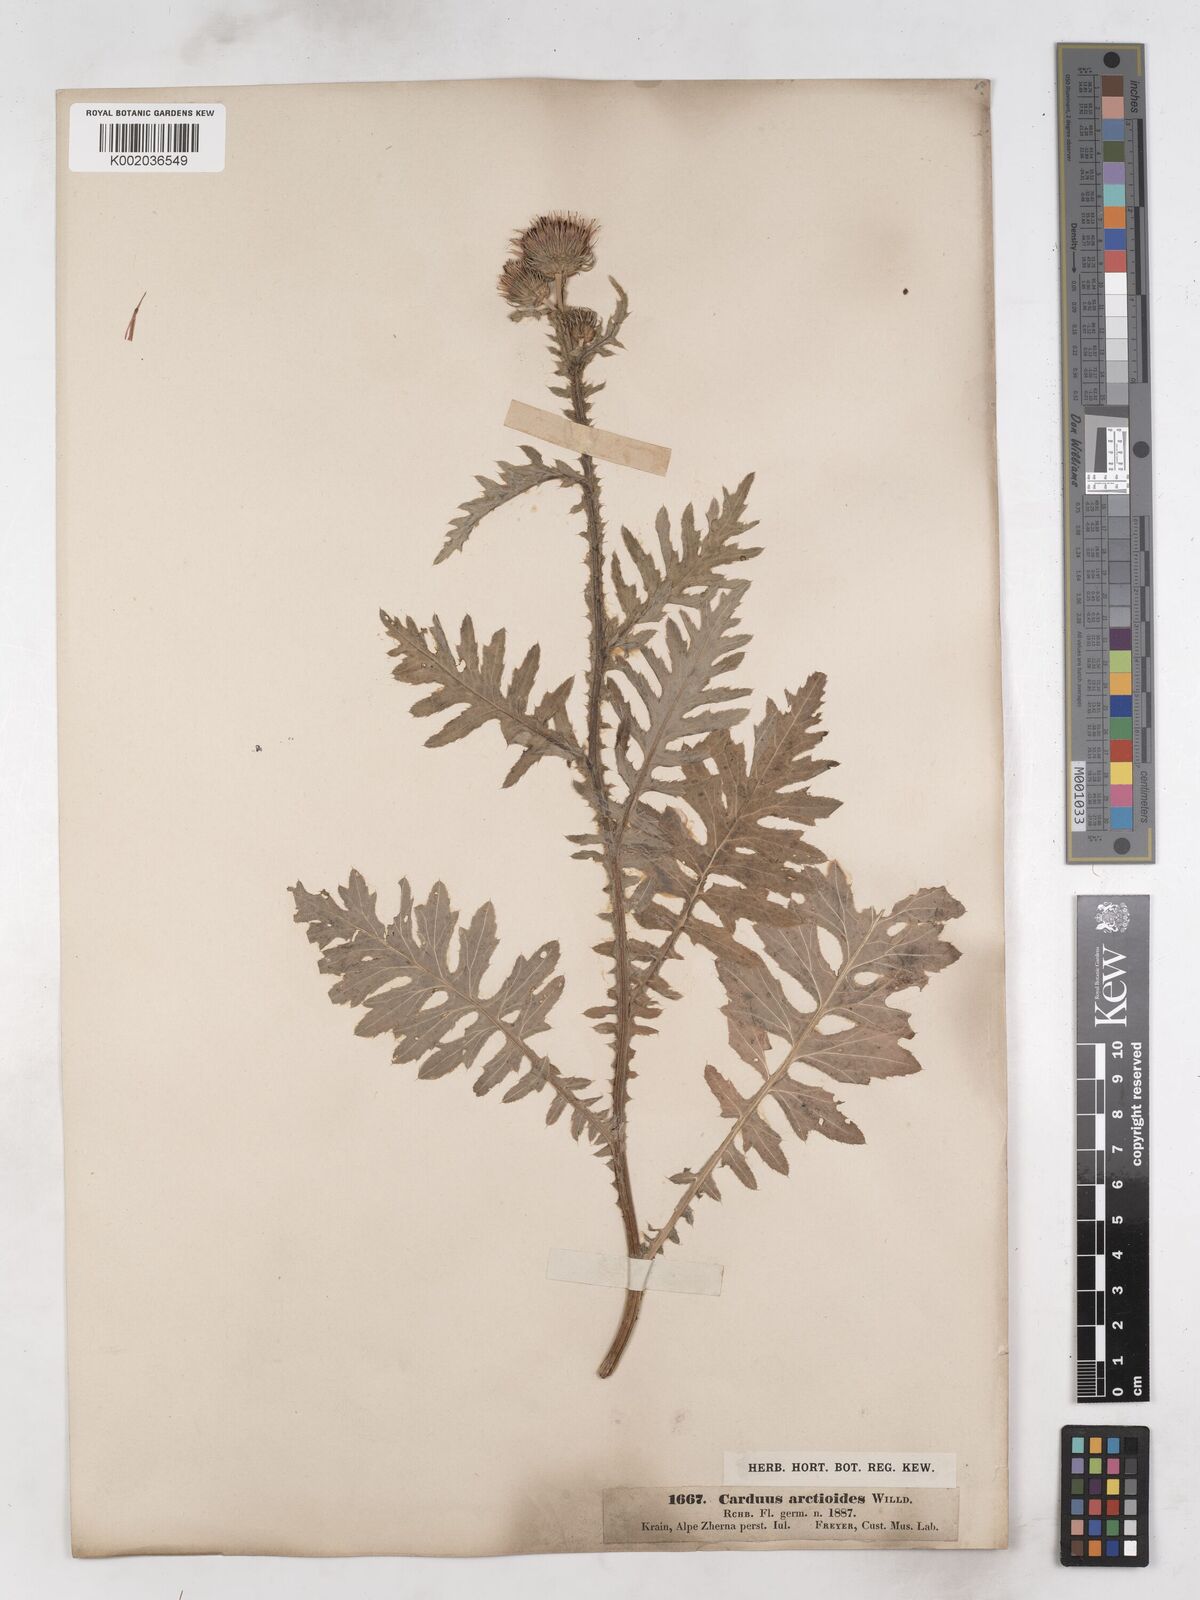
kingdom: Plantae
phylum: Tracheophyta
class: Magnoliopsida
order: Asterales
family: Asteraceae
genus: Carduus
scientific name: Carduus carduelis
